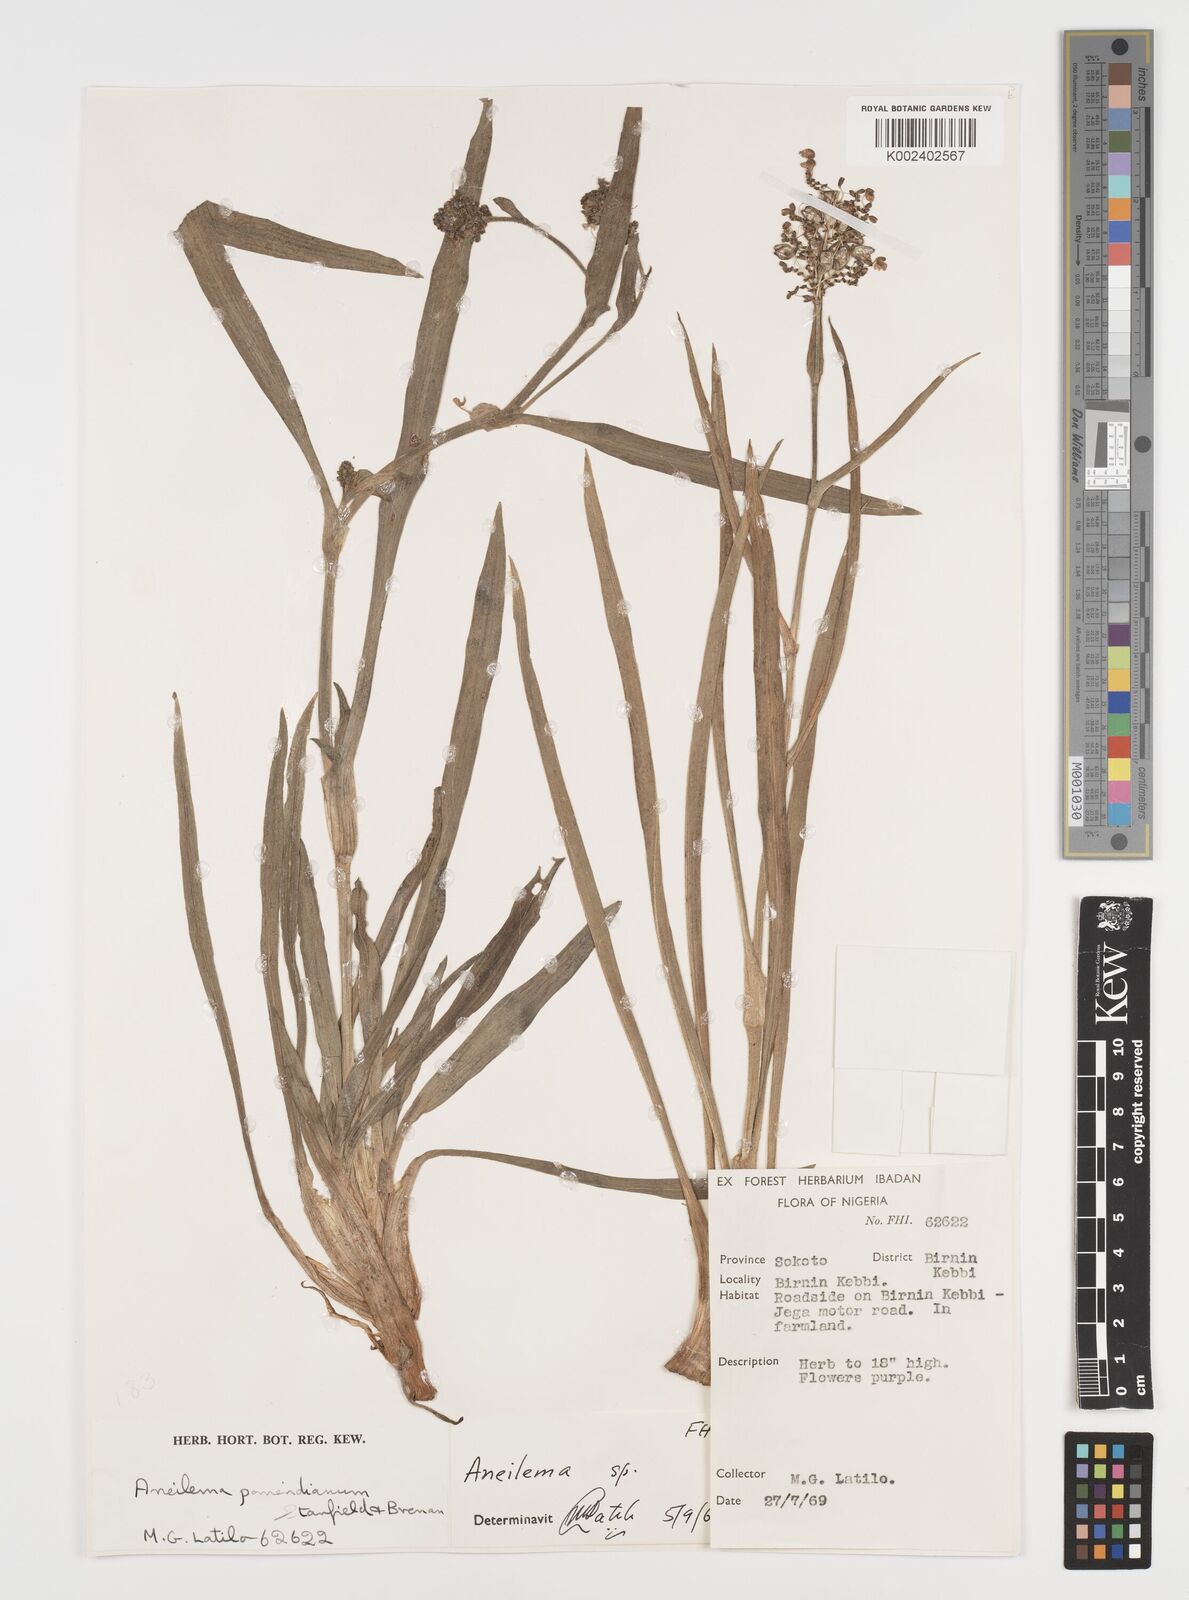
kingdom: Plantae
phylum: Tracheophyta
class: Liliopsida
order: Commelinales
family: Commelinaceae
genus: Aneilema
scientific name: Aneilema pomeridianum
